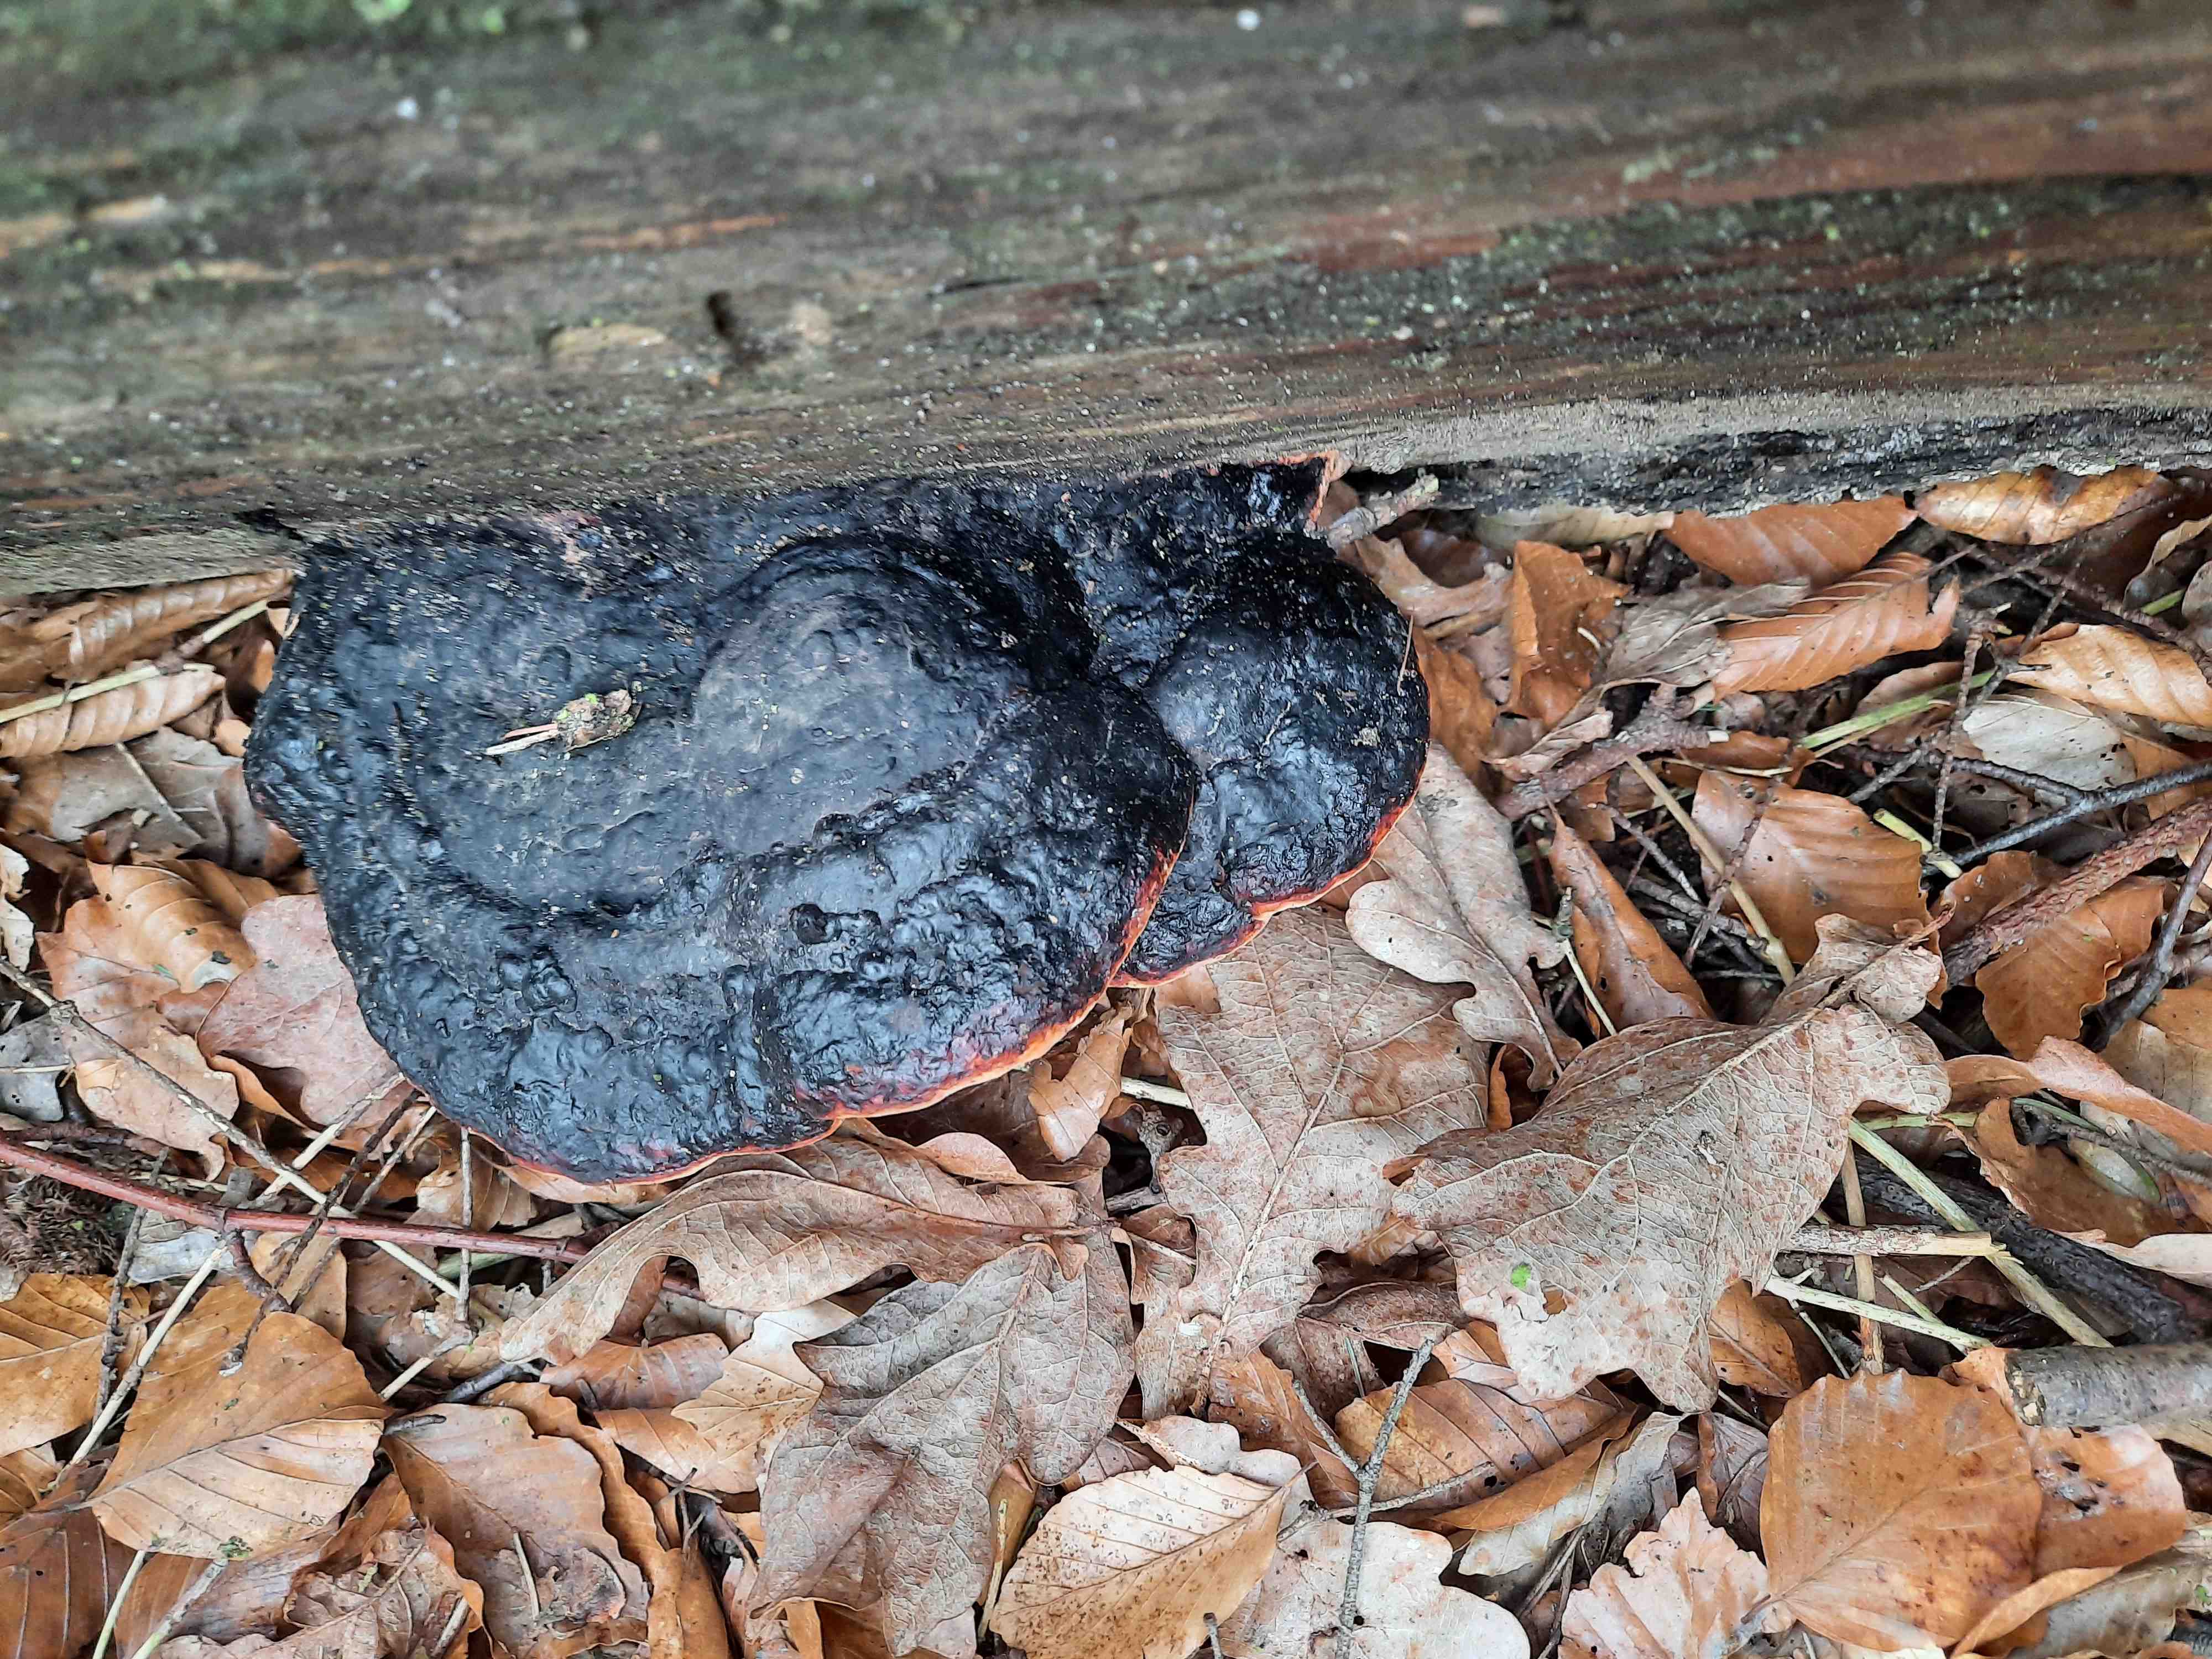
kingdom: Fungi
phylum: Basidiomycota
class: Agaricomycetes
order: Polyporales
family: Fomitopsidaceae
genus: Fomitopsis
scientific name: Fomitopsis pinicola
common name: randbæltet hovporesvamp
